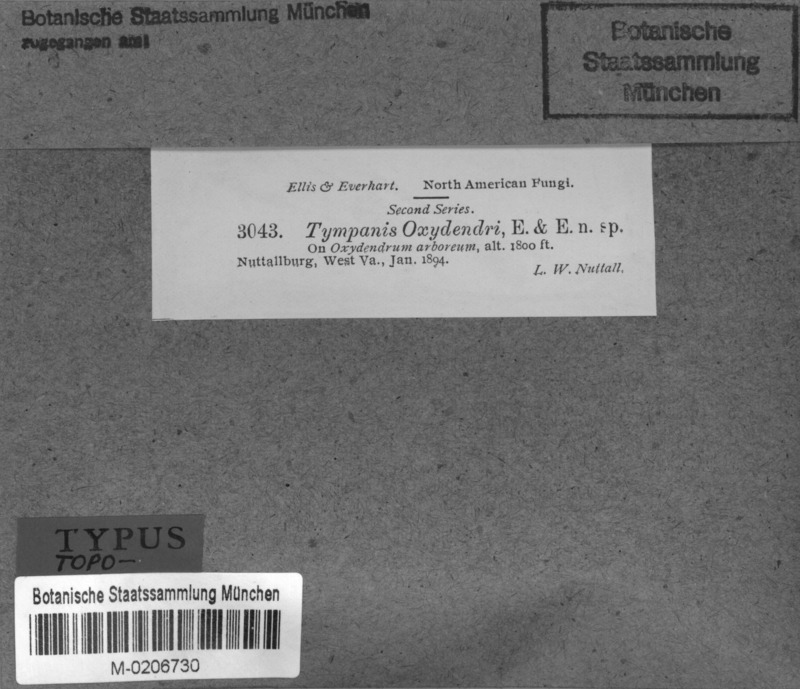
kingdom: Fungi
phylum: Ascomycota
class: Leotiomycetes
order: Leotiales
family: Tympanidaceae
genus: Tympanis
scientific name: Tympanis oxydendri
